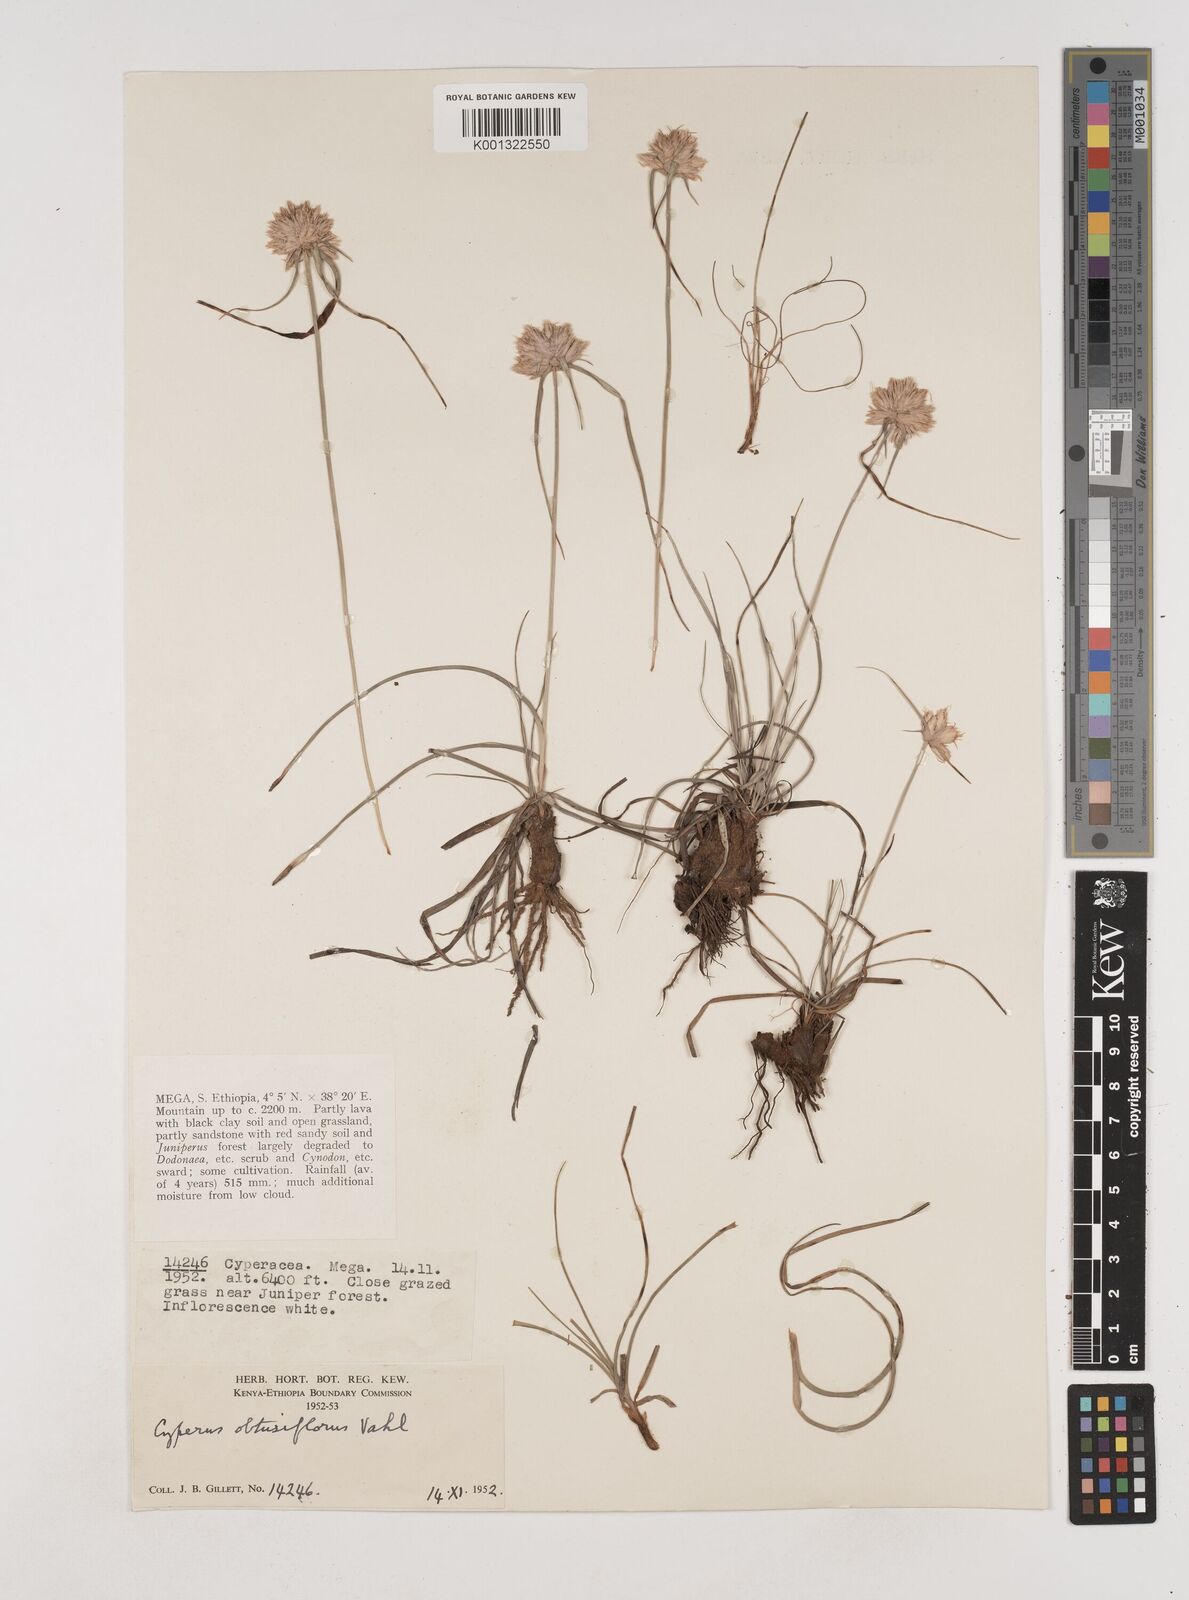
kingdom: Plantae
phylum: Tracheophyta
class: Liliopsida
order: Poales
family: Cyperaceae
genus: Cyperus
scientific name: Cyperus niveus
